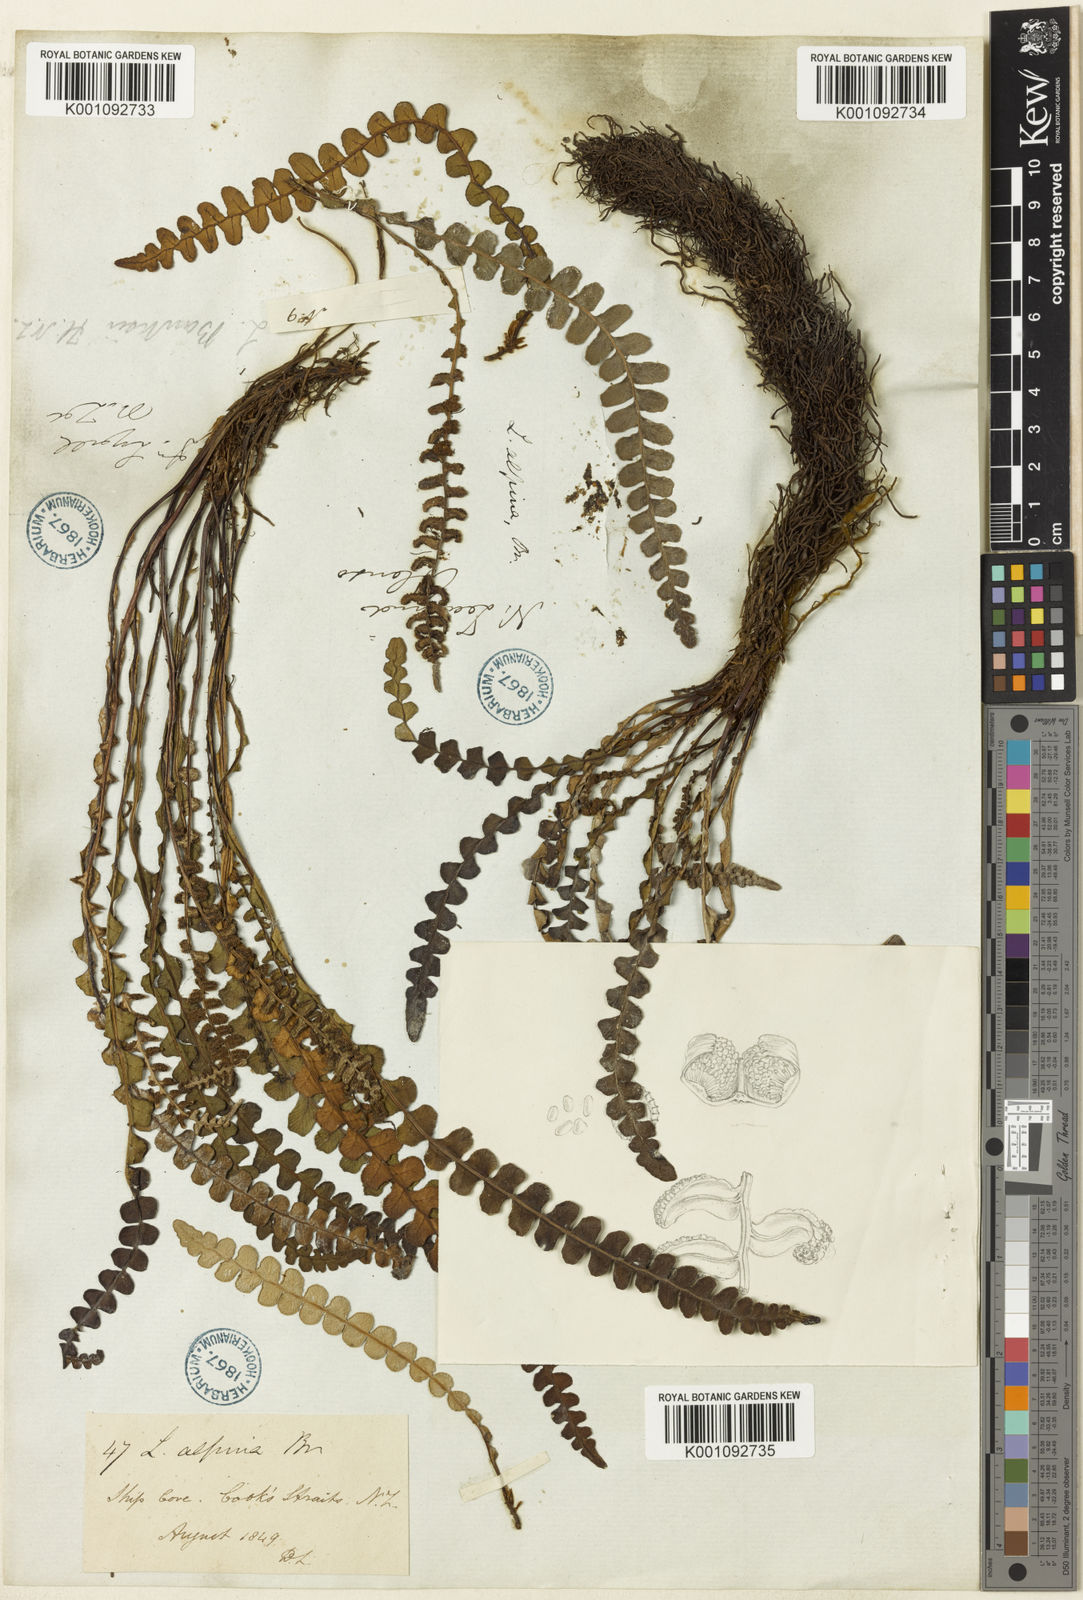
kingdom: Plantae
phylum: Tracheophyta
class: Polypodiopsida
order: Polypodiales
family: Blechnaceae
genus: Austroblechnum
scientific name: Austroblechnum leyboldtianum
